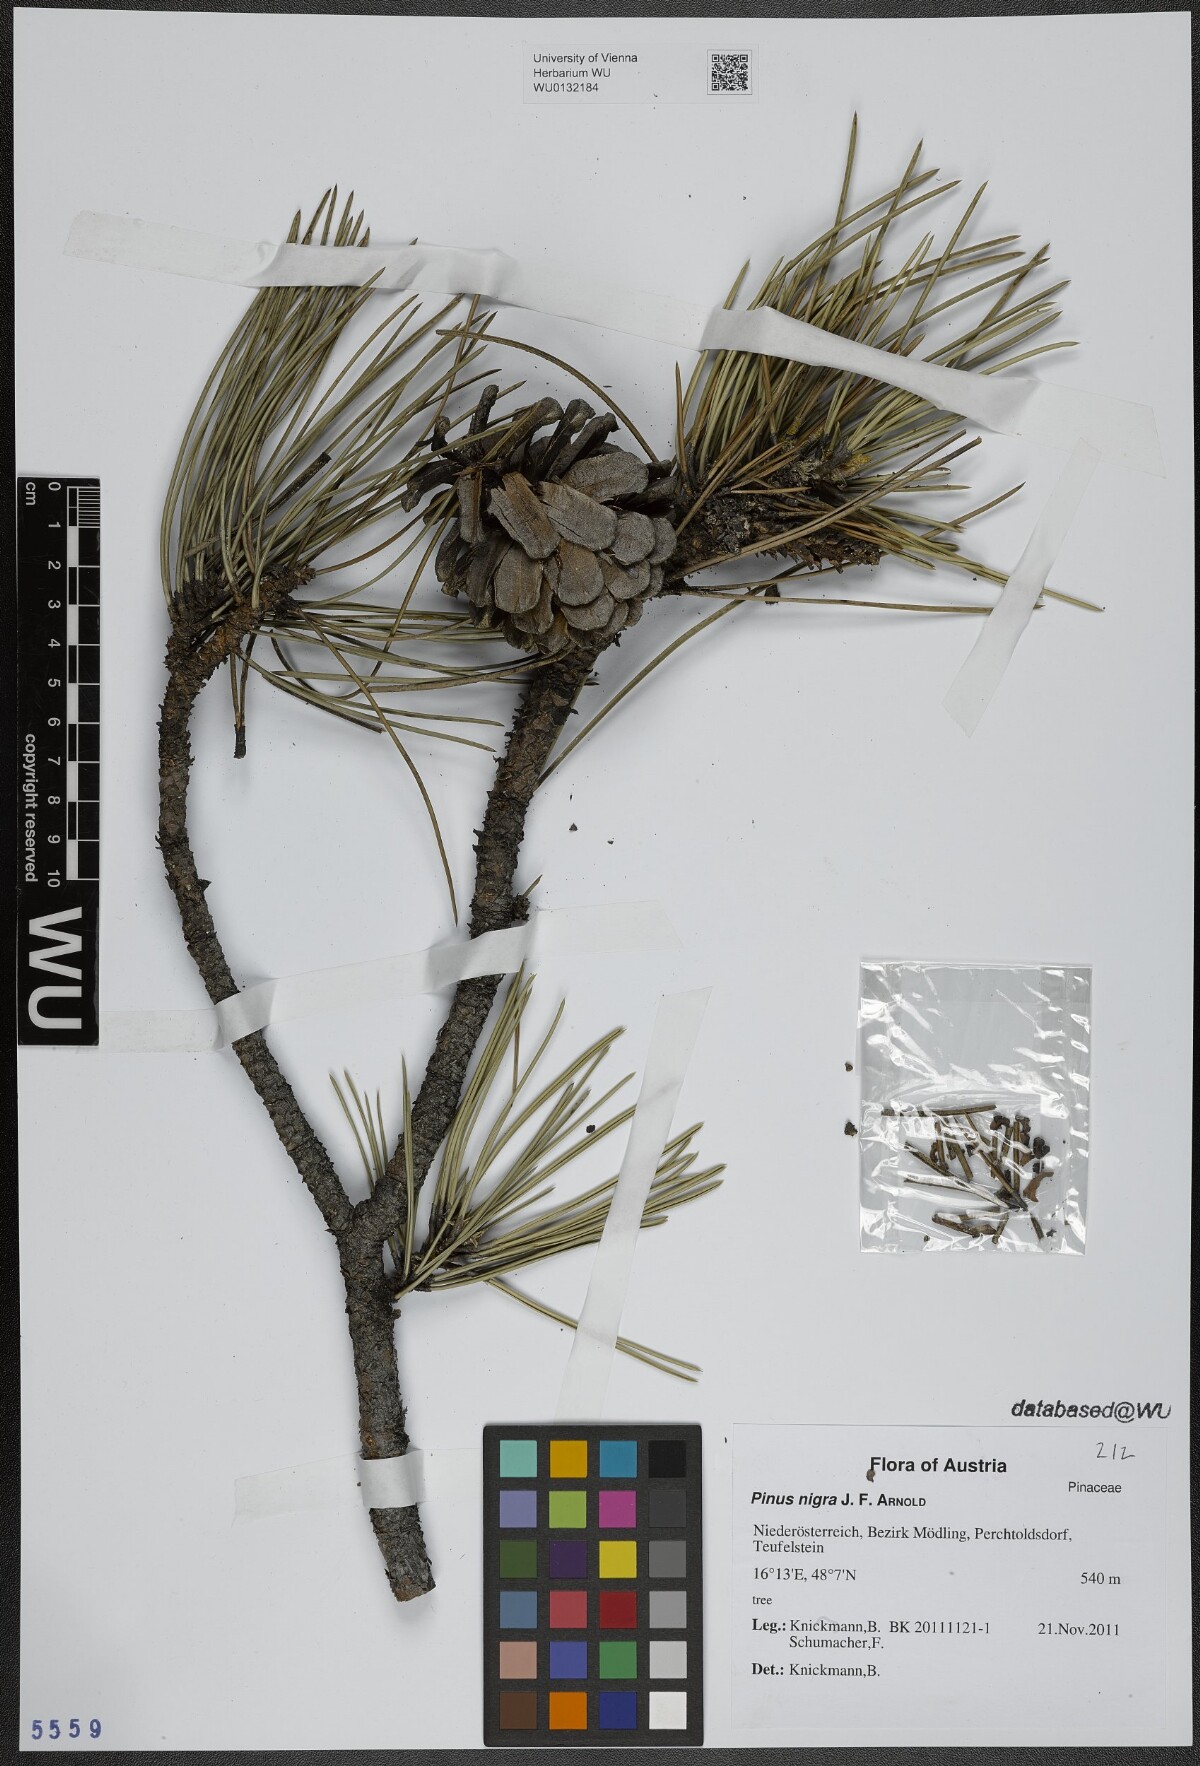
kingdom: Plantae
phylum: Tracheophyta
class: Pinopsida
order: Pinales
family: Pinaceae
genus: Pinus
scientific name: Pinus nigra
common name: Austrian pine
